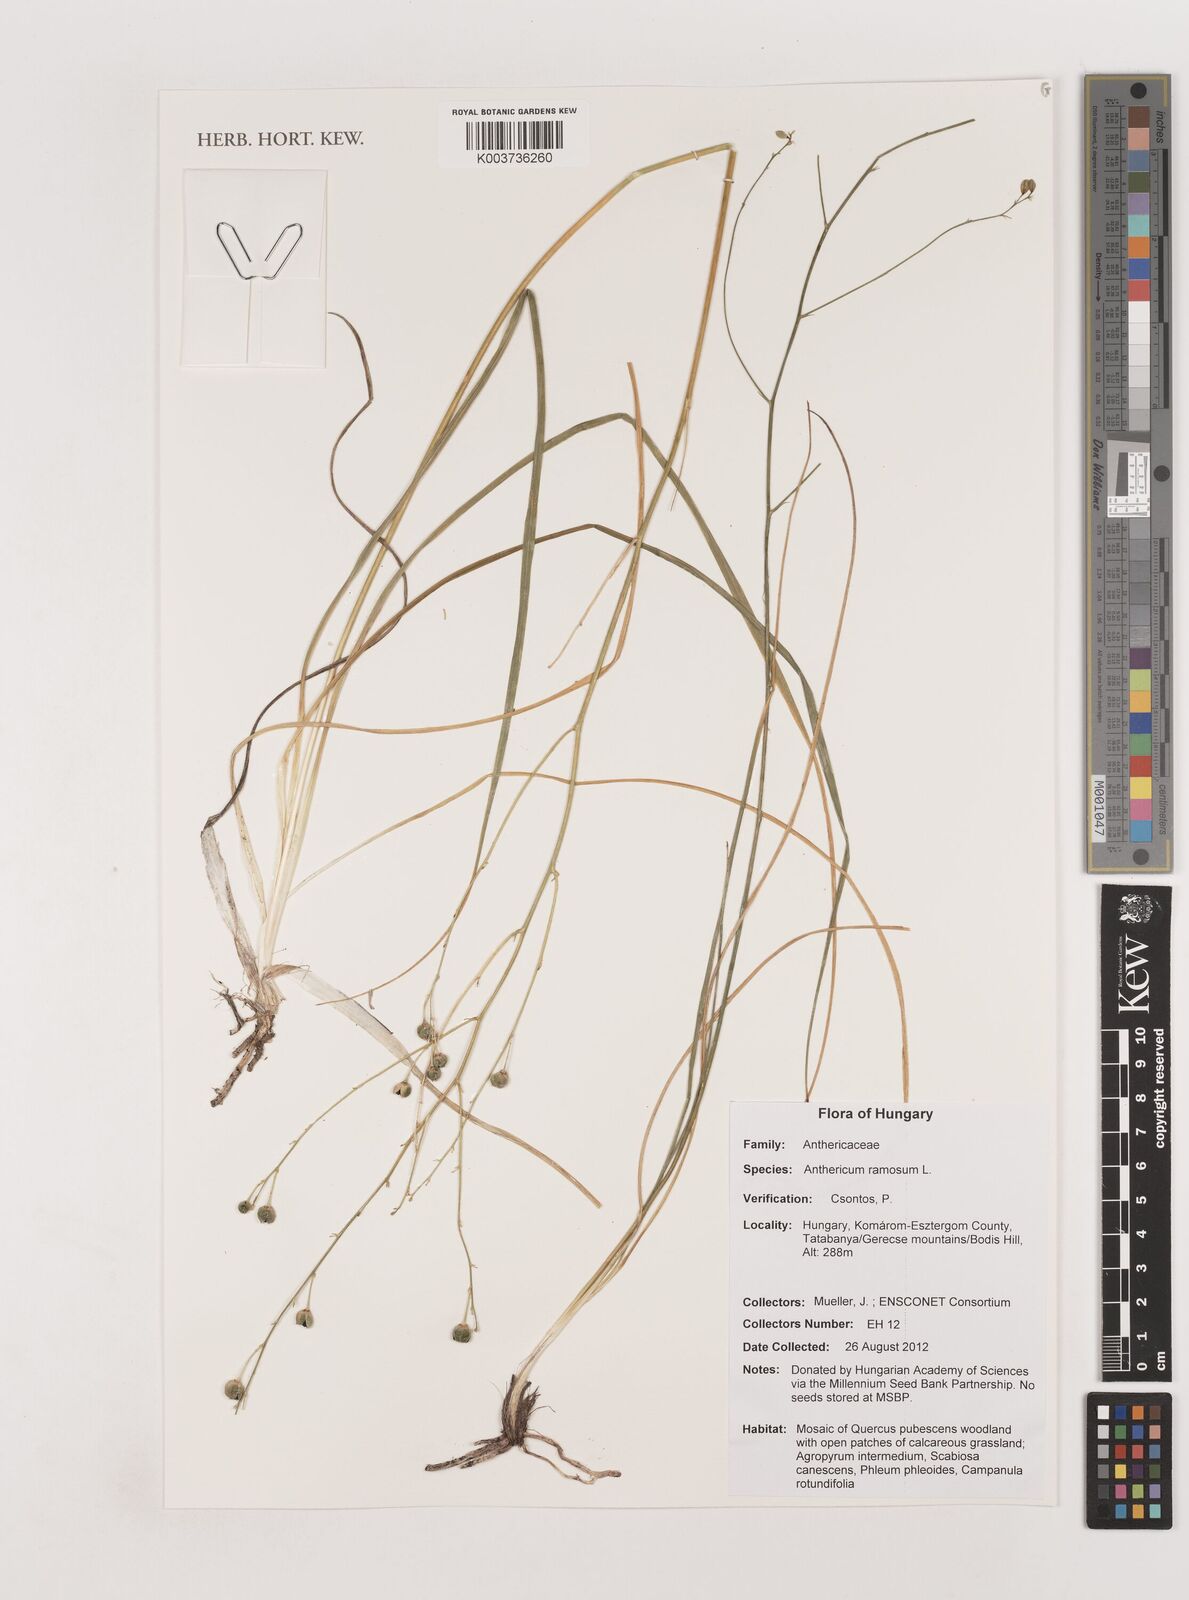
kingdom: Plantae
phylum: Tracheophyta
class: Liliopsida
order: Asparagales
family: Asparagaceae
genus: Anthericum
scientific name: Anthericum ramosum
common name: Branched st. bernard's-lily
